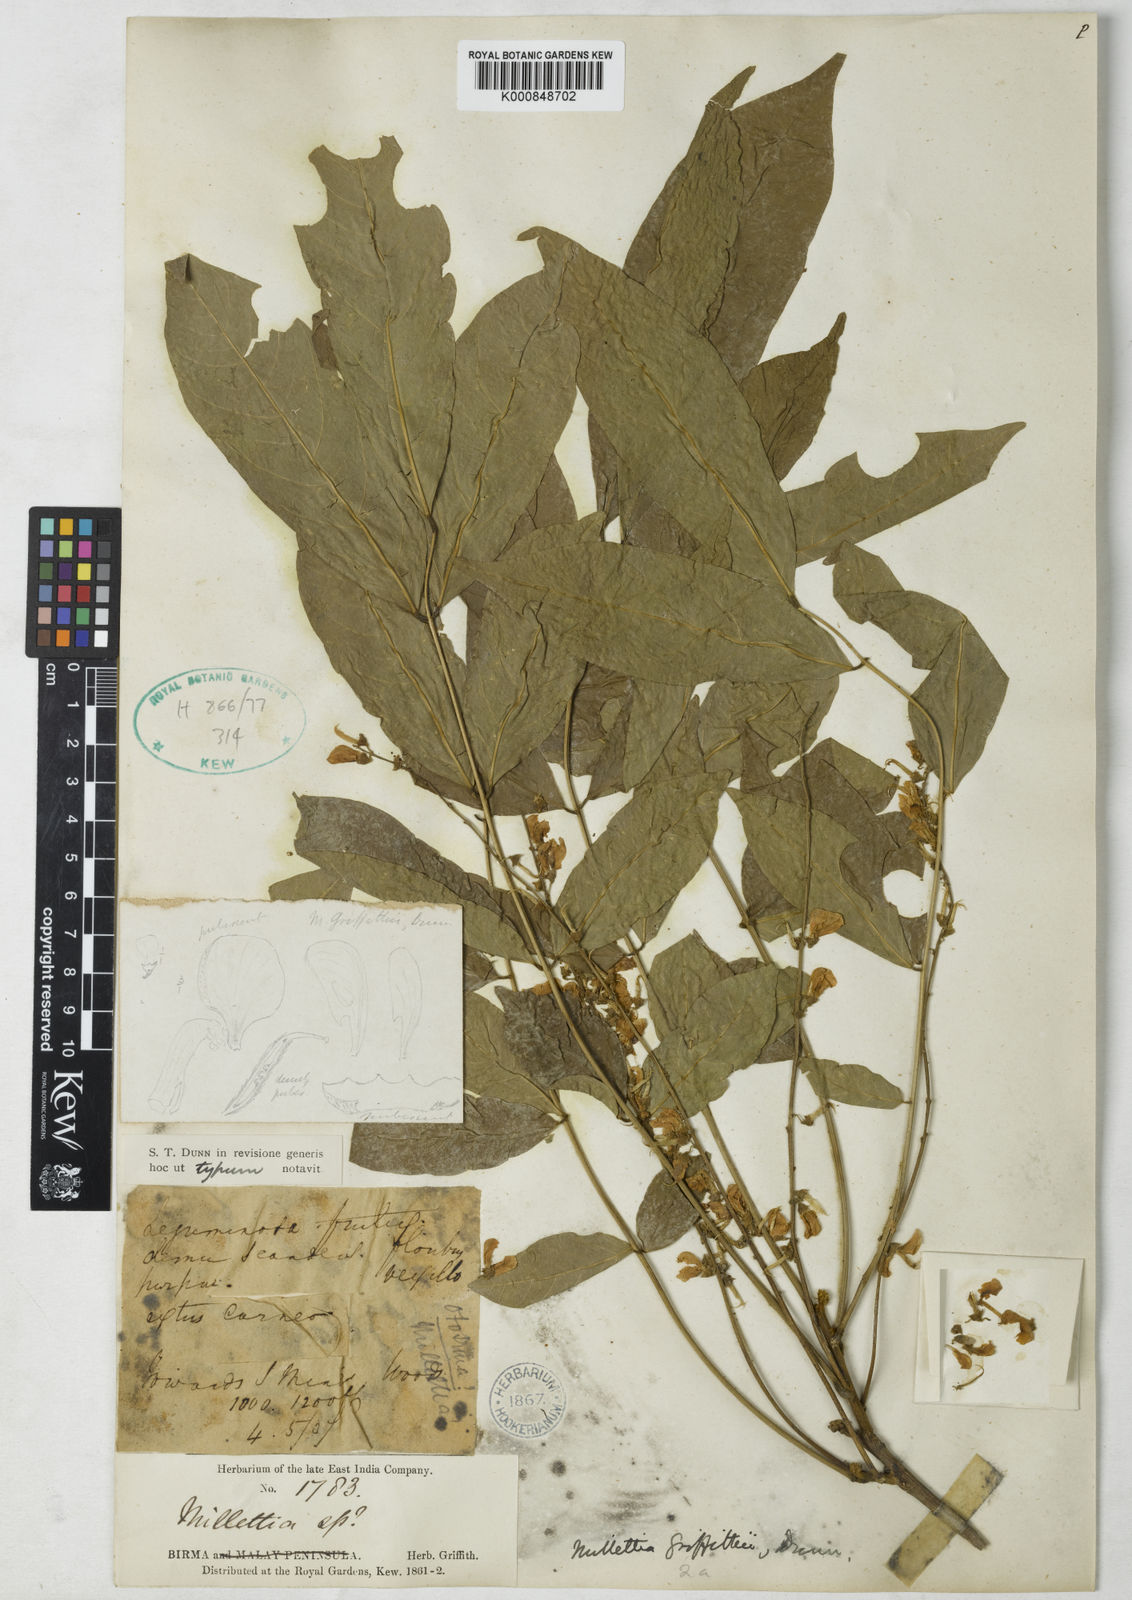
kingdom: Plantae
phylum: Tracheophyta
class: Magnoliopsida
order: Fabales
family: Fabaceae
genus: Millettia
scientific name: Millettia griffithii
